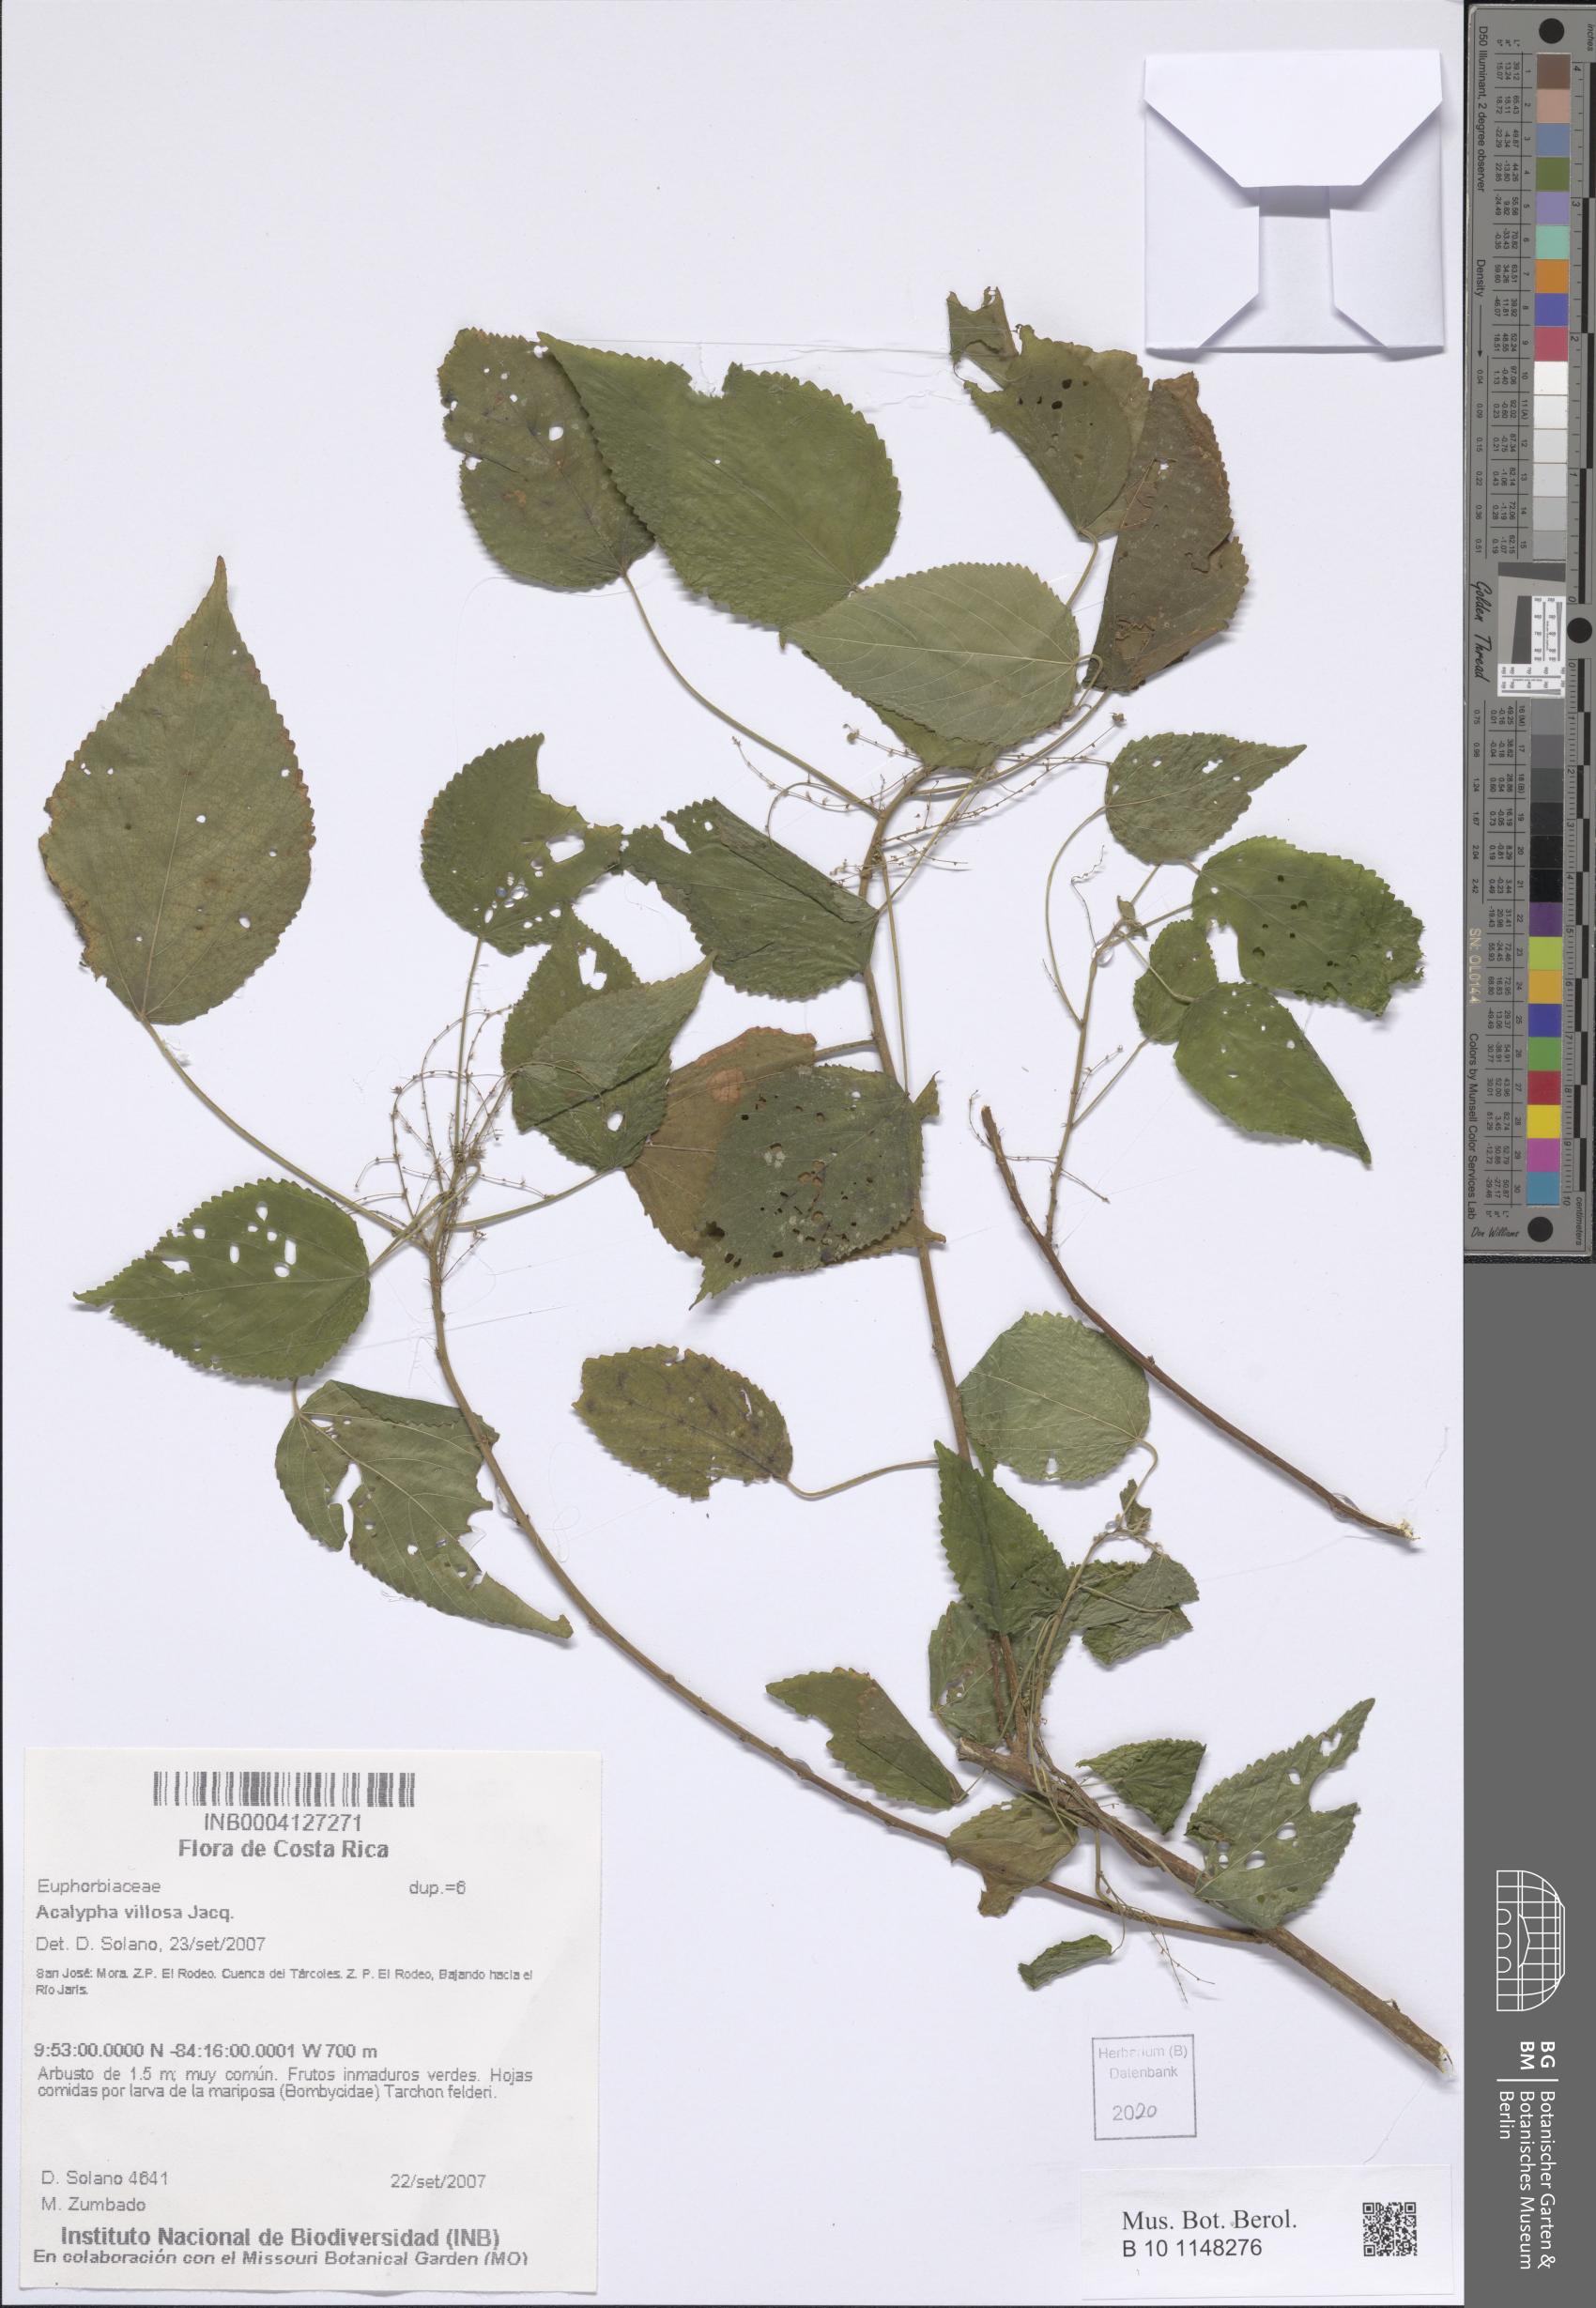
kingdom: Plantae
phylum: Tracheophyta
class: Magnoliopsida
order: Malpighiales
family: Euphorbiaceae
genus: Acalypha
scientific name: Acalypha villosa
